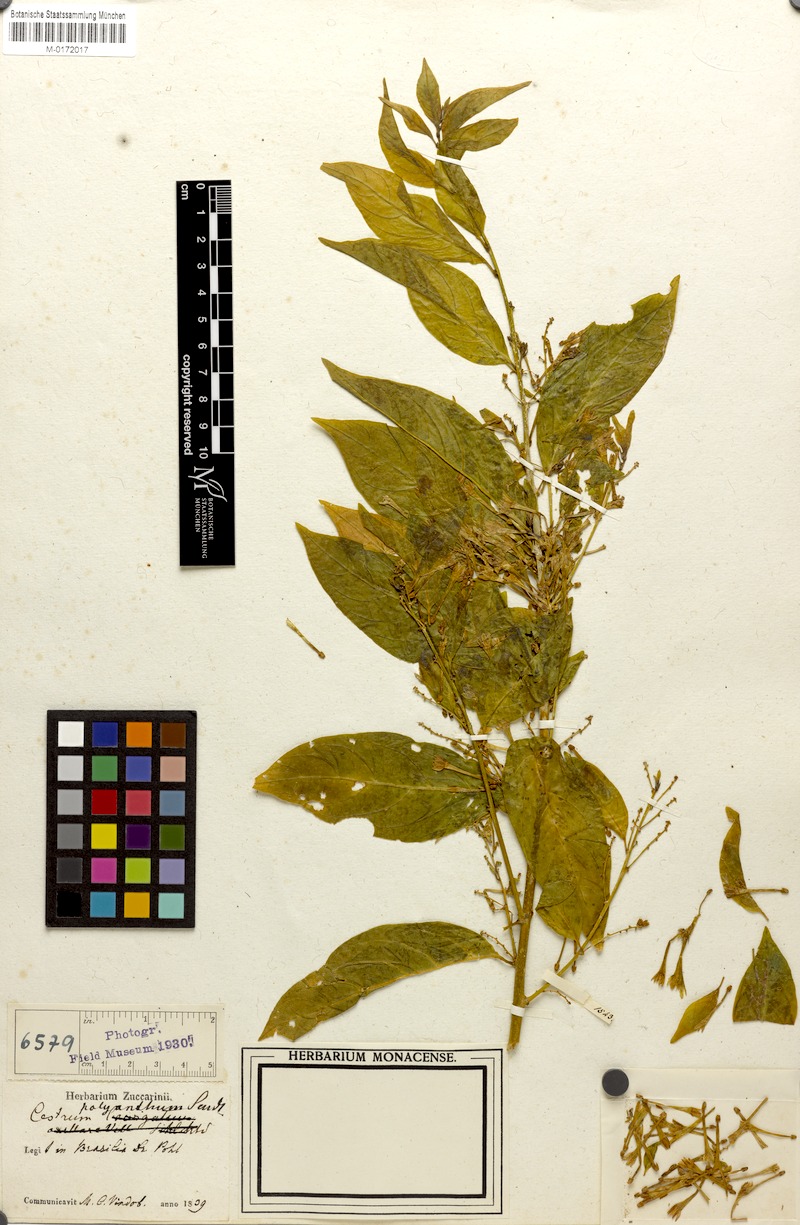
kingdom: Plantae
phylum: Tracheophyta
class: Magnoliopsida
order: Solanales
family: Solanaceae
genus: Cestrum
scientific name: Cestrum polyanthum
